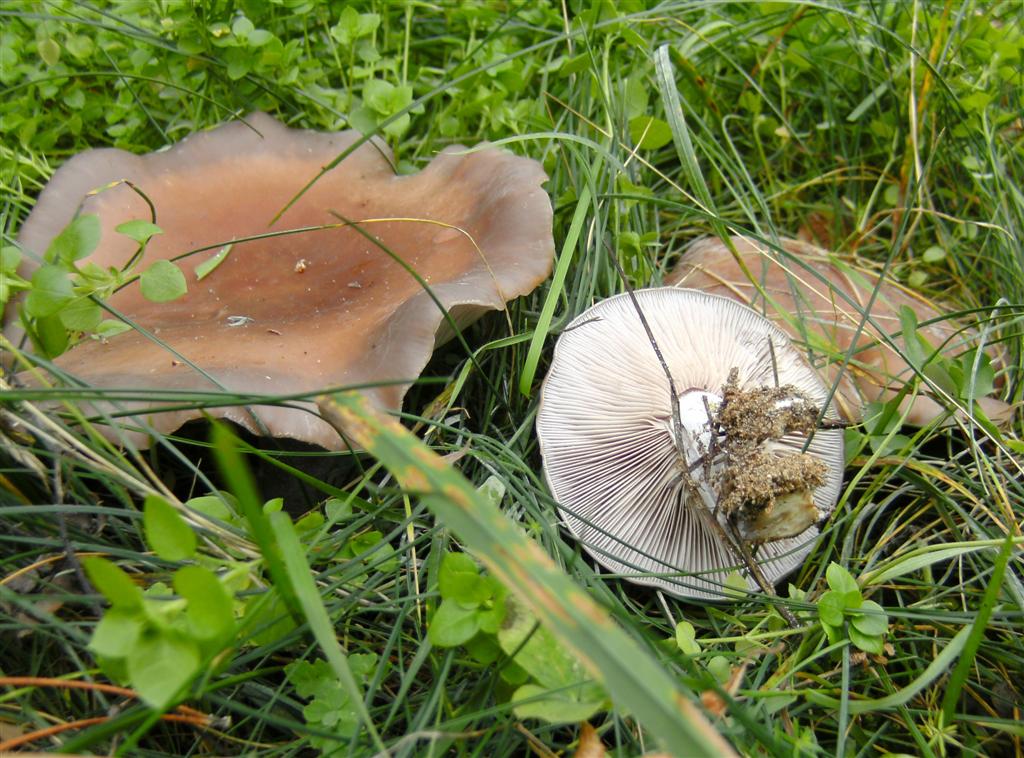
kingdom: Fungi
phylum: Basidiomycota
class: Agaricomycetes
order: Agaricales
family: Tricholomataceae
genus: Lepista
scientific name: Lepista nuda
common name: violet hekseringshat
